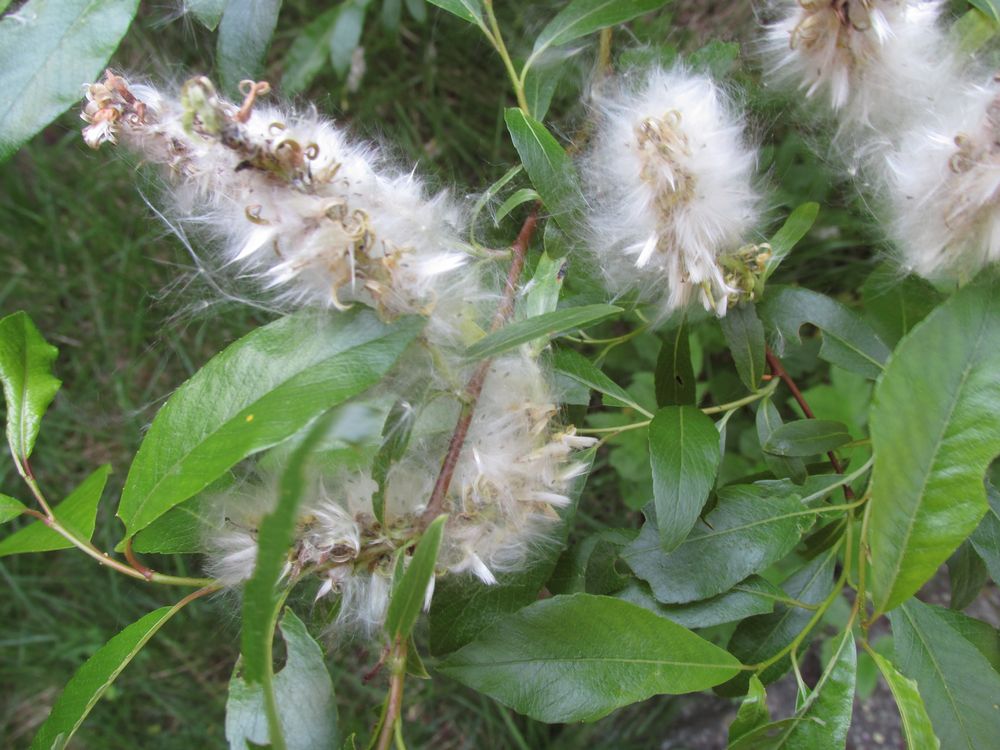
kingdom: Plantae
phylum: Tracheophyta
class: Magnoliopsida
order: Malpighiales
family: Salicaceae
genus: Salix
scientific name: Salix phylicifolia
